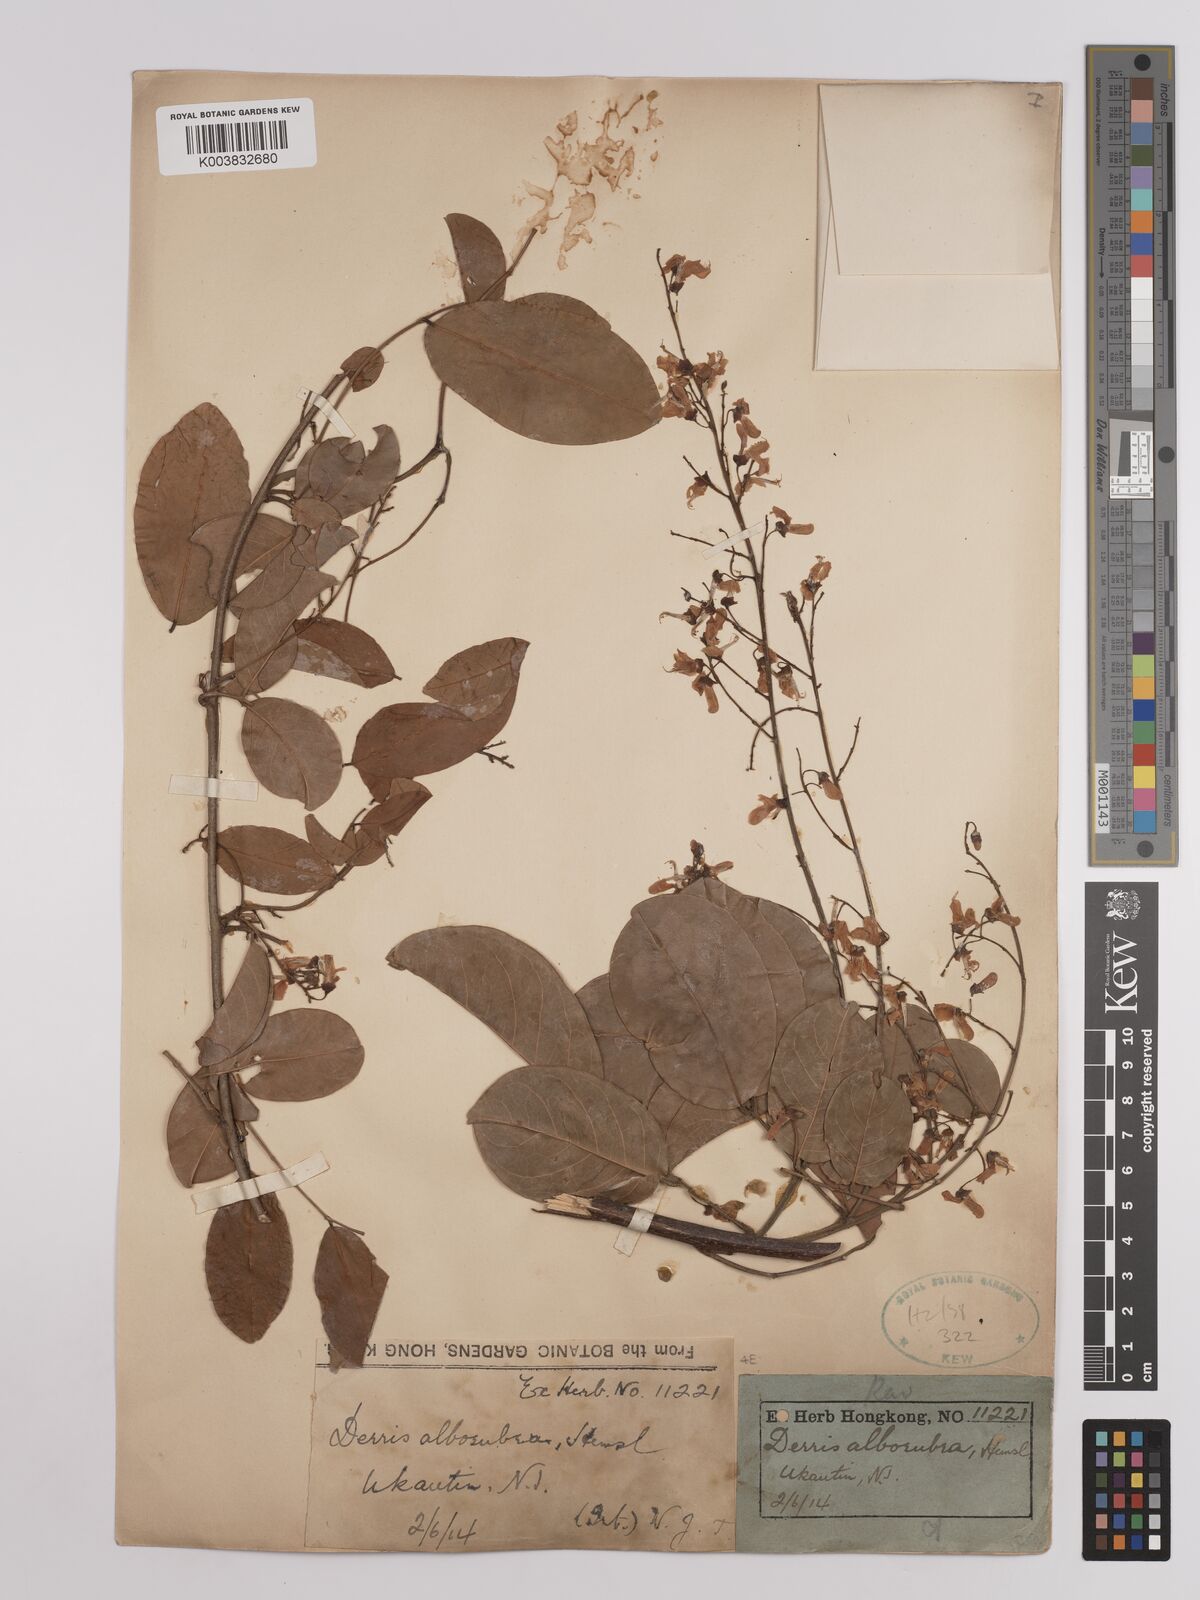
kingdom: Plantae
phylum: Tracheophyta
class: Magnoliopsida
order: Fabales
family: Fabaceae
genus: Derris
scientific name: Derris alborubra
